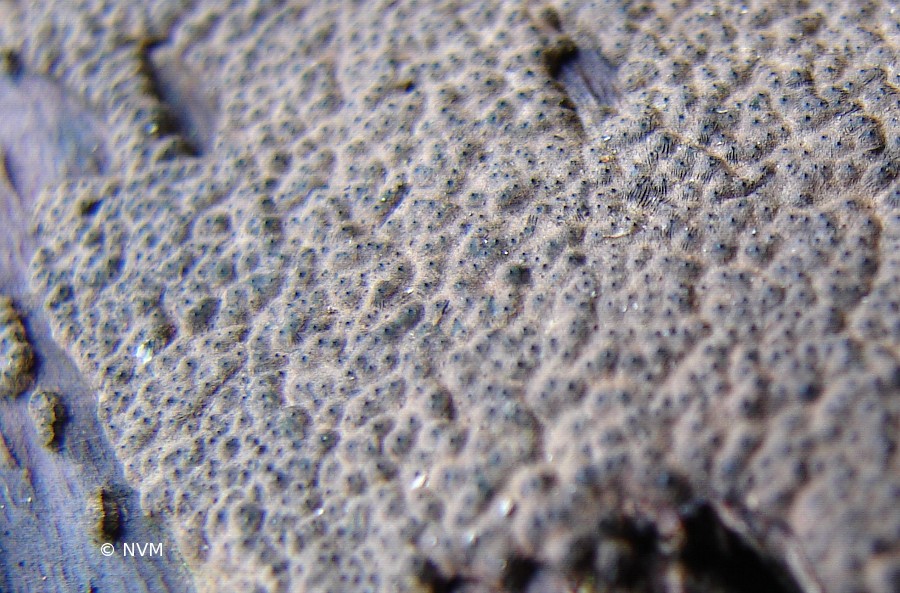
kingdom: Fungi
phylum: Ascomycota
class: Sordariomycetes
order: Xylariales
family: Xylariaceae
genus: Nemania
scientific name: Nemania chestersii
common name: stribesporet kuldyne
